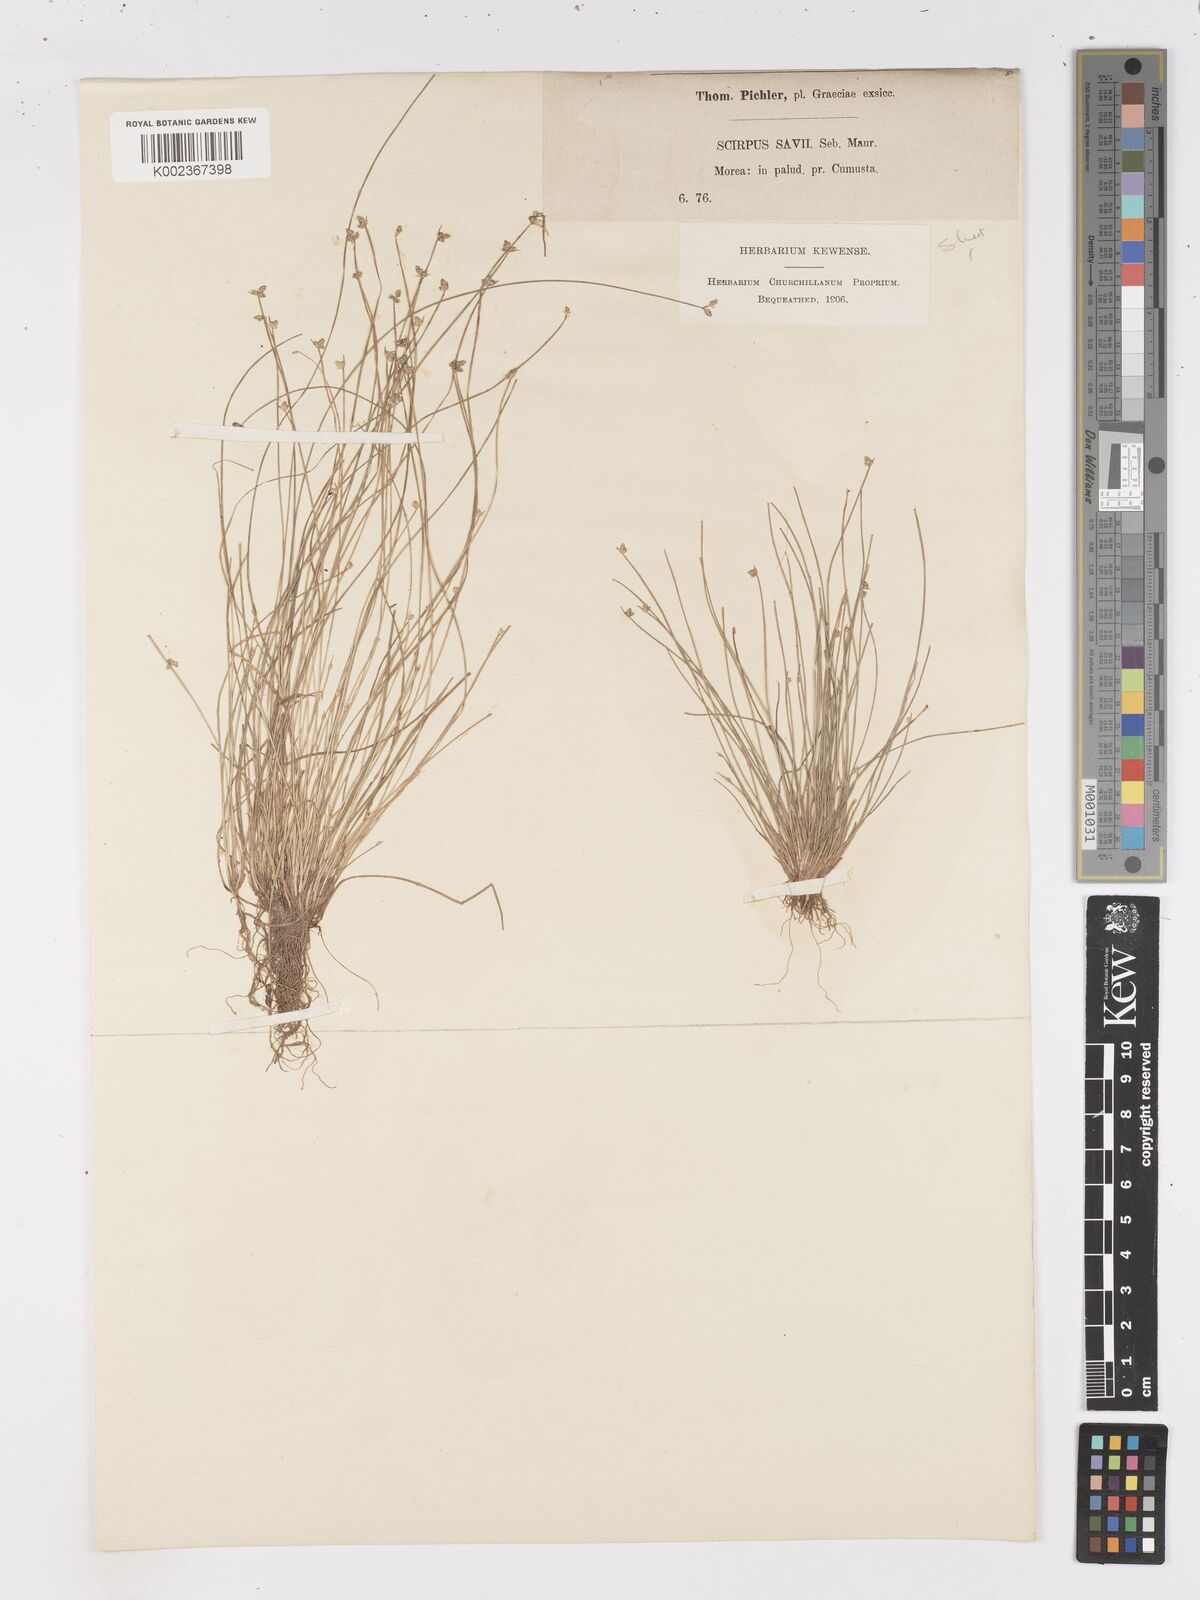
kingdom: Plantae
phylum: Tracheophyta
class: Liliopsida
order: Poales
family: Cyperaceae
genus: Isolepis
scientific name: Isolepis cernua
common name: Slender club-rush
